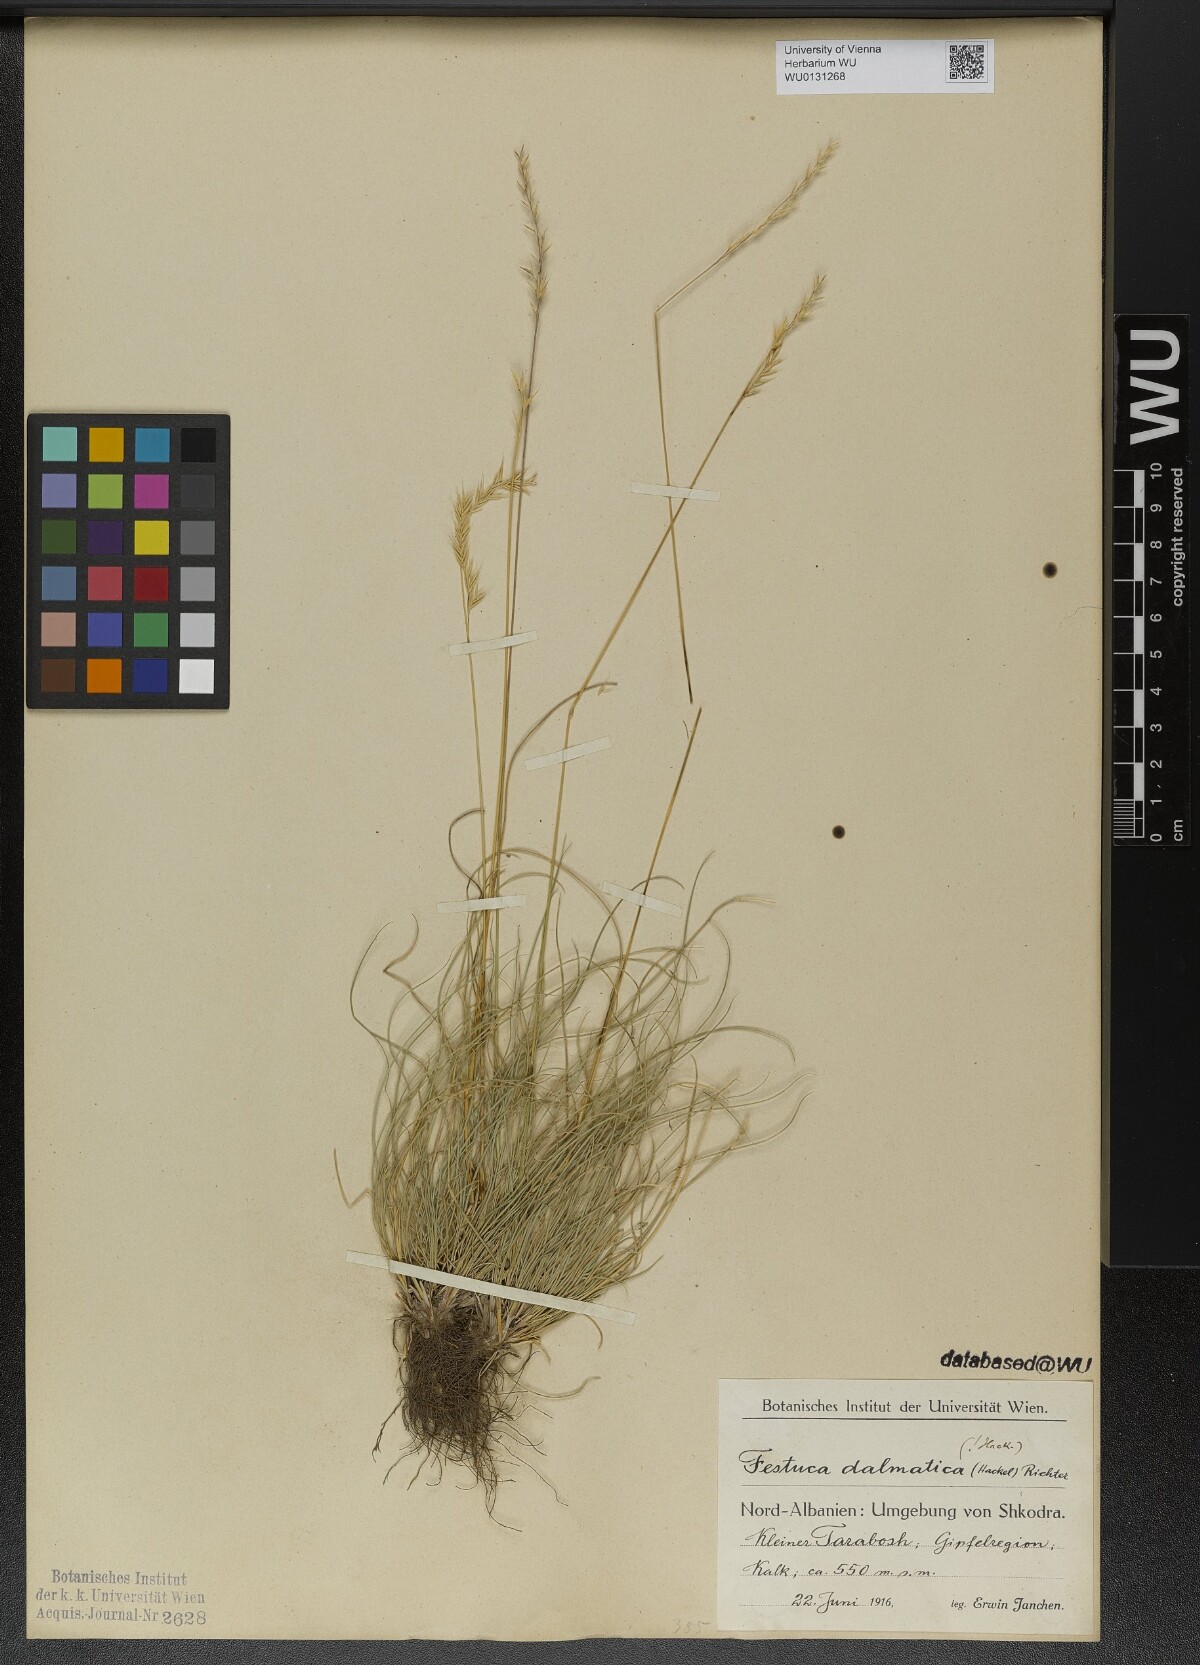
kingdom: Plantae
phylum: Tracheophyta
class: Liliopsida
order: Poales
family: Poaceae
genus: Festuca
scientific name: Festuca dalmatica
